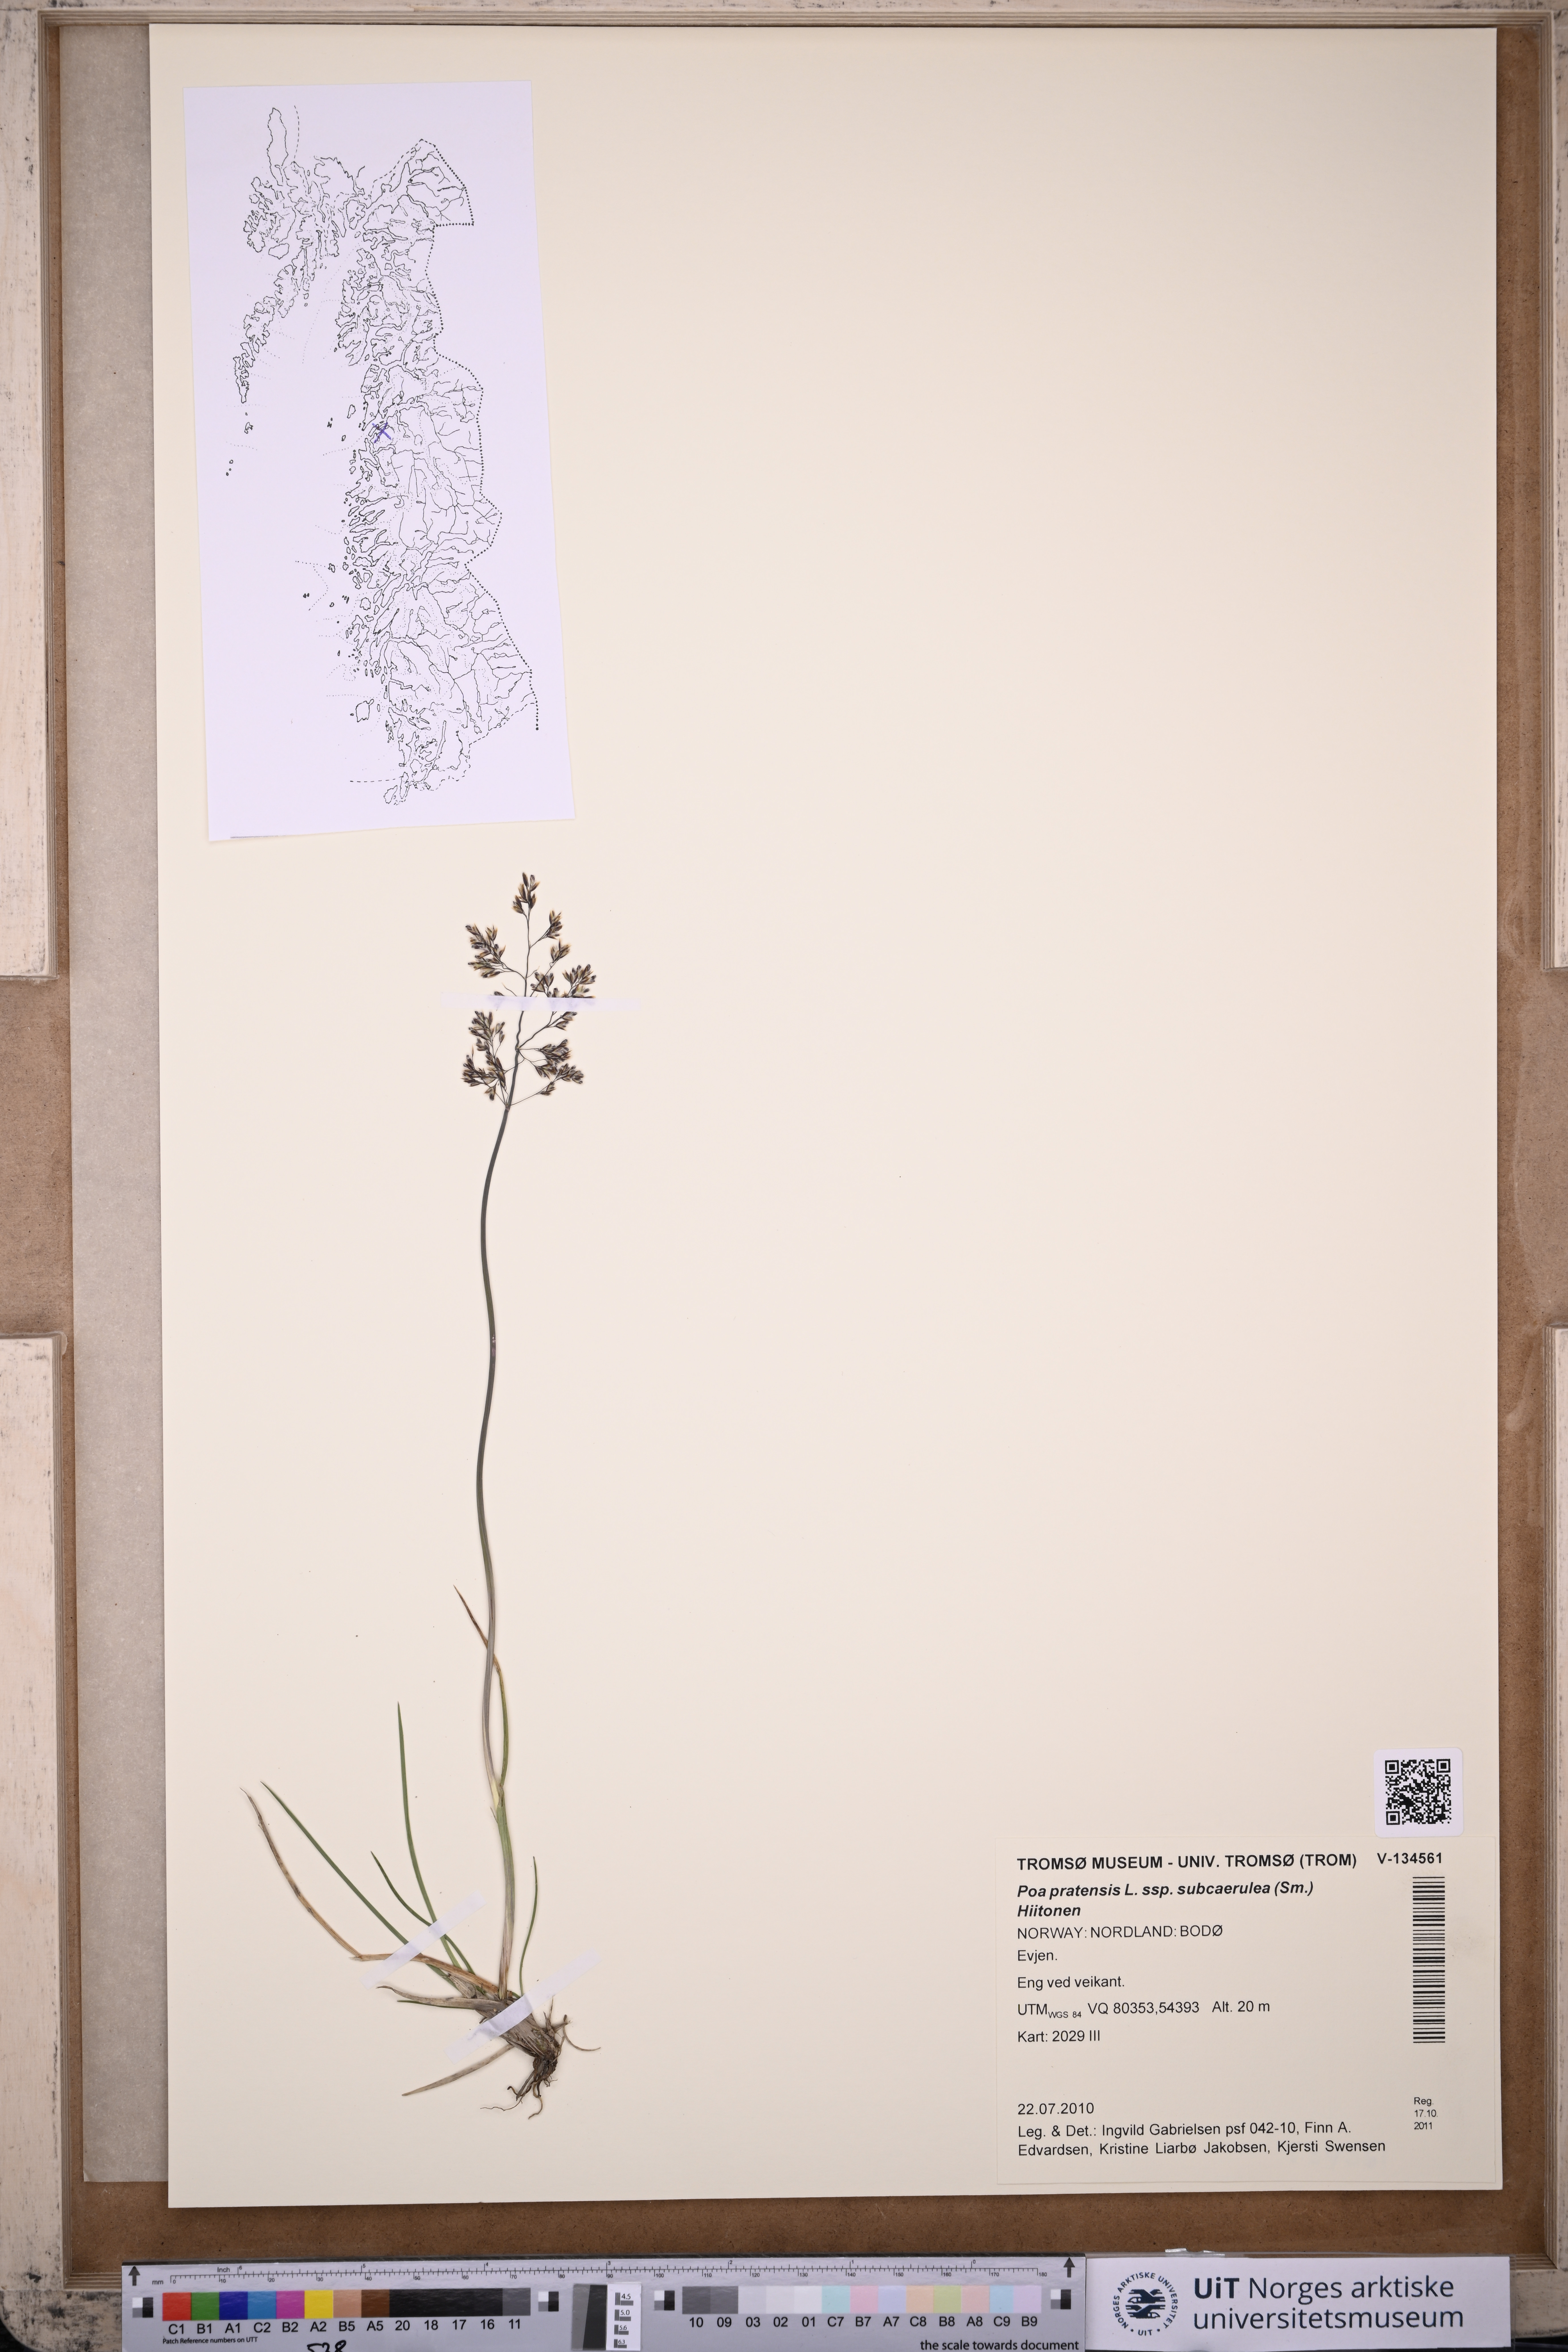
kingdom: Plantae
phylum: Tracheophyta
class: Liliopsida
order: Poales
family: Poaceae
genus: Poa
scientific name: Poa humilis
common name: Spreading meadow-grass
